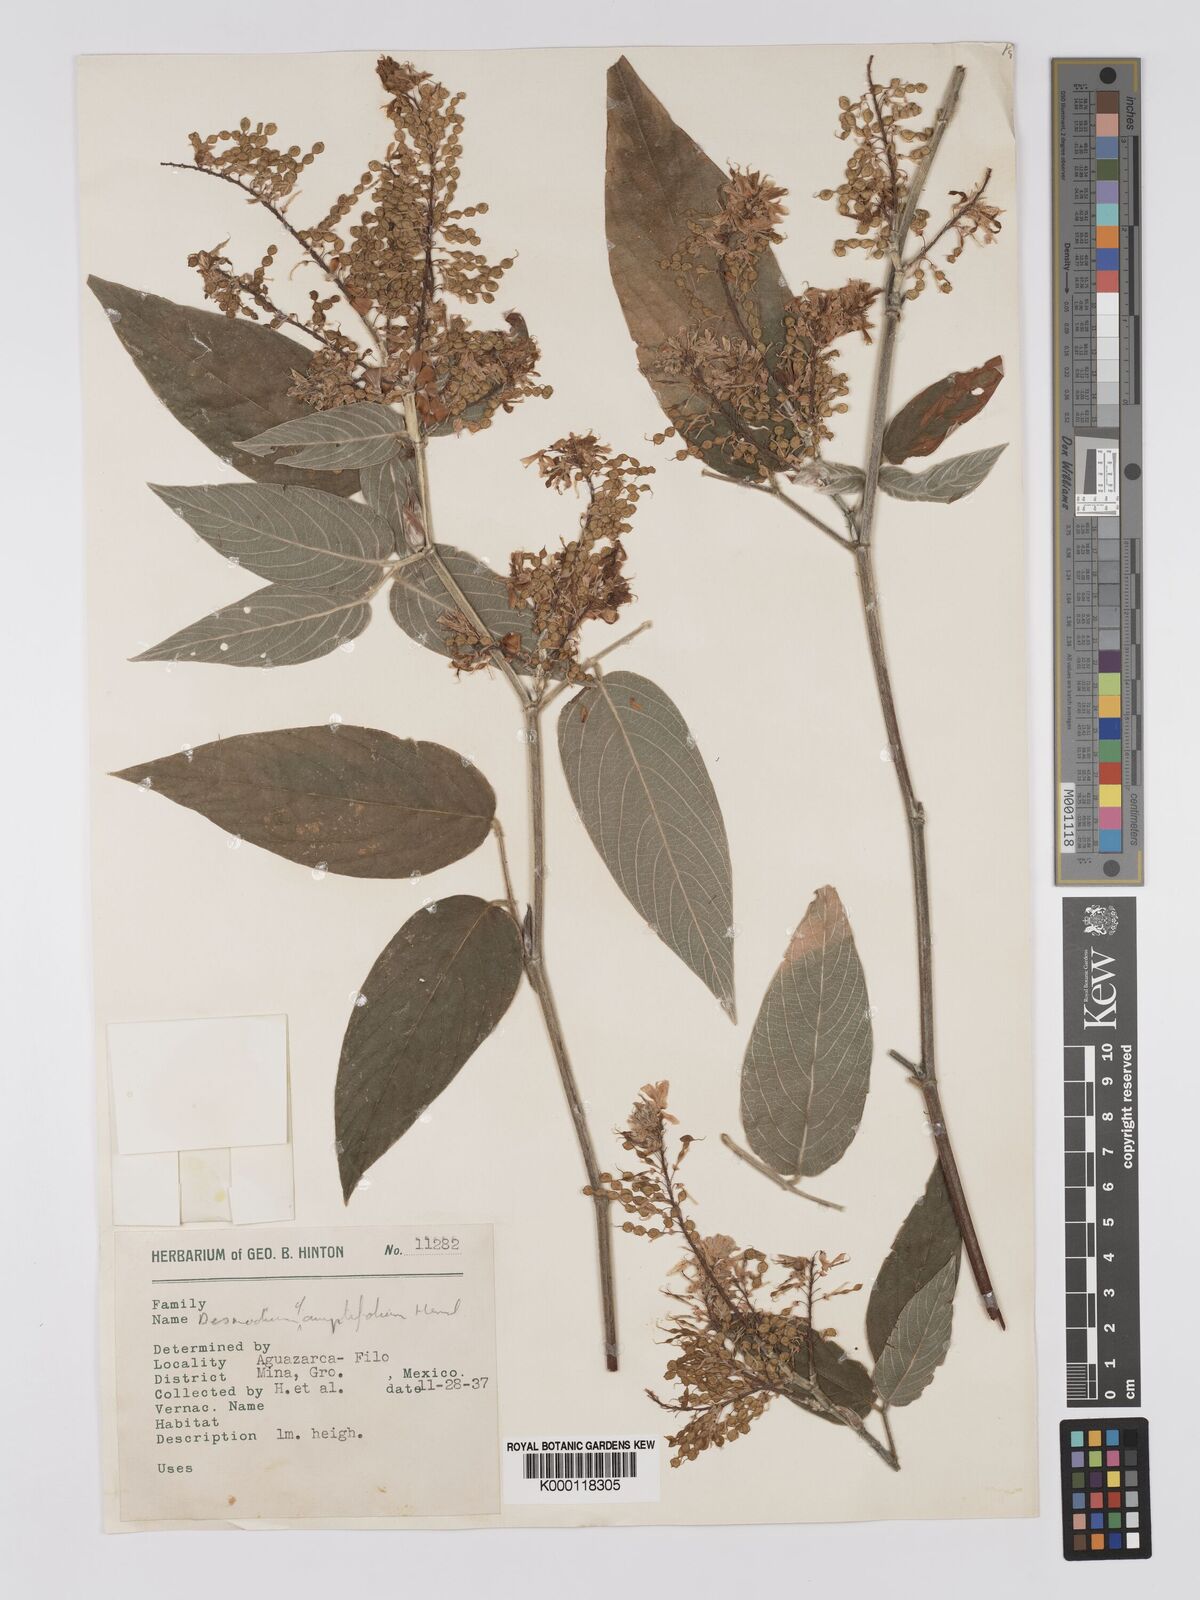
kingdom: Plantae
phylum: Tracheophyta
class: Magnoliopsida
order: Fabales
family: Fabaceae
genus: Desmodium
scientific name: Desmodium amplifolium
